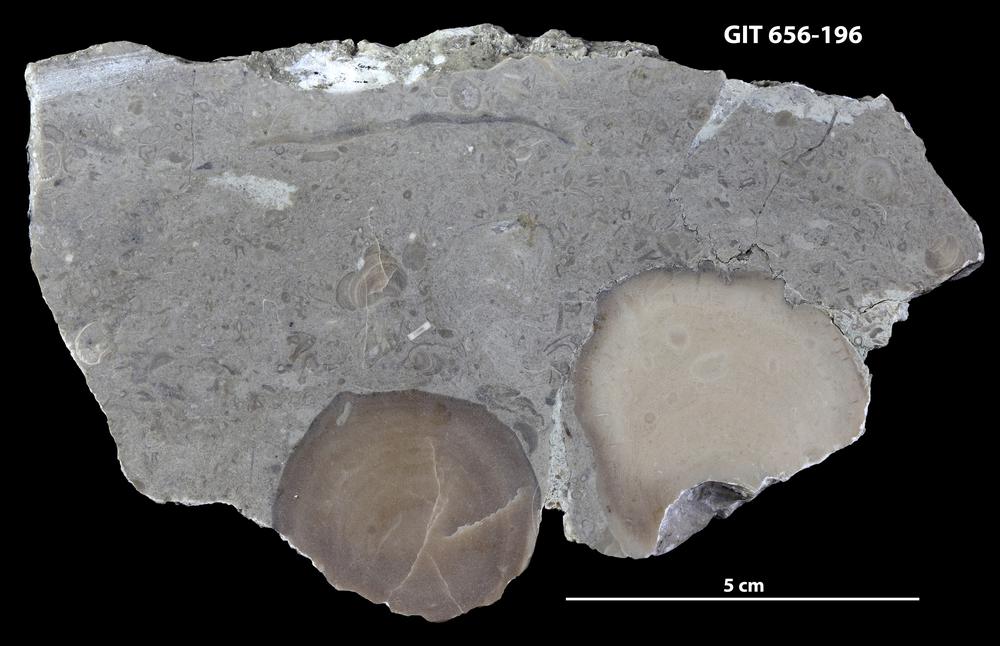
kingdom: Animalia
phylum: Porifera
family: Actinostromatidae
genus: Plectostroma
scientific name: Plectostroma
